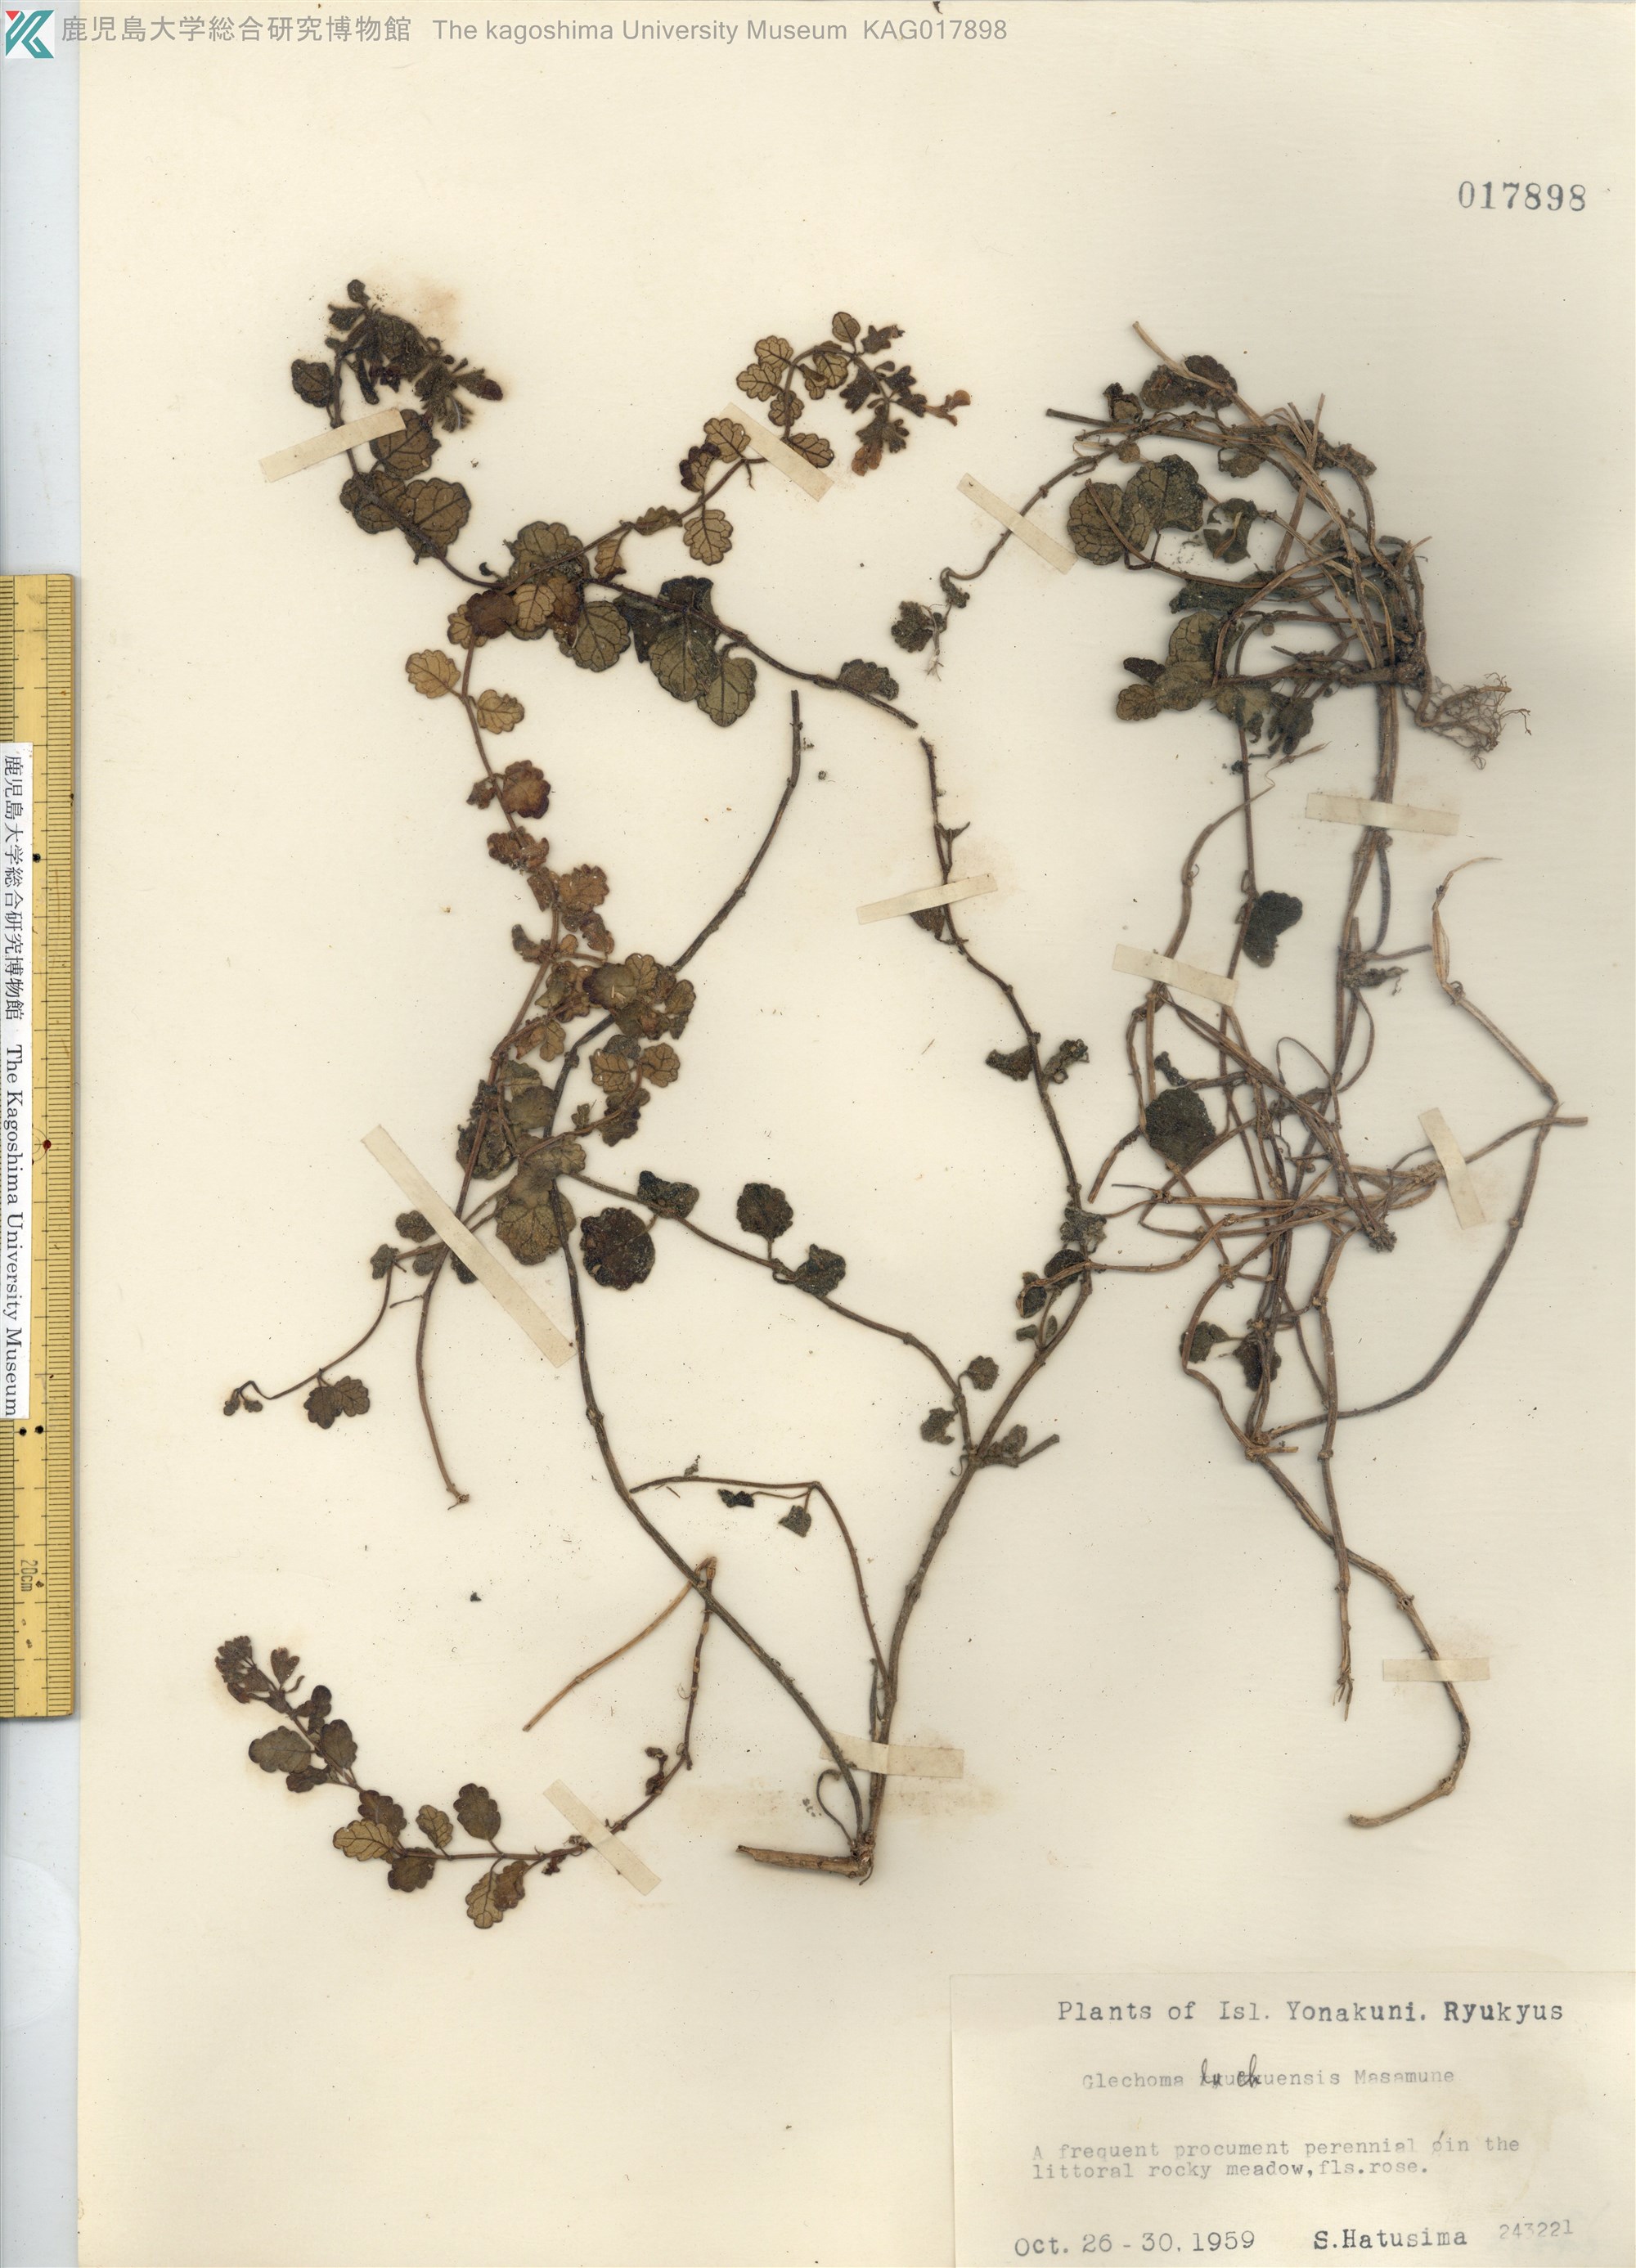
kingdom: Plantae
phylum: Tracheophyta
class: Magnoliopsida
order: Lamiales
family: Lamiaceae
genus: Suzukia
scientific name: Suzukia luchuensis
